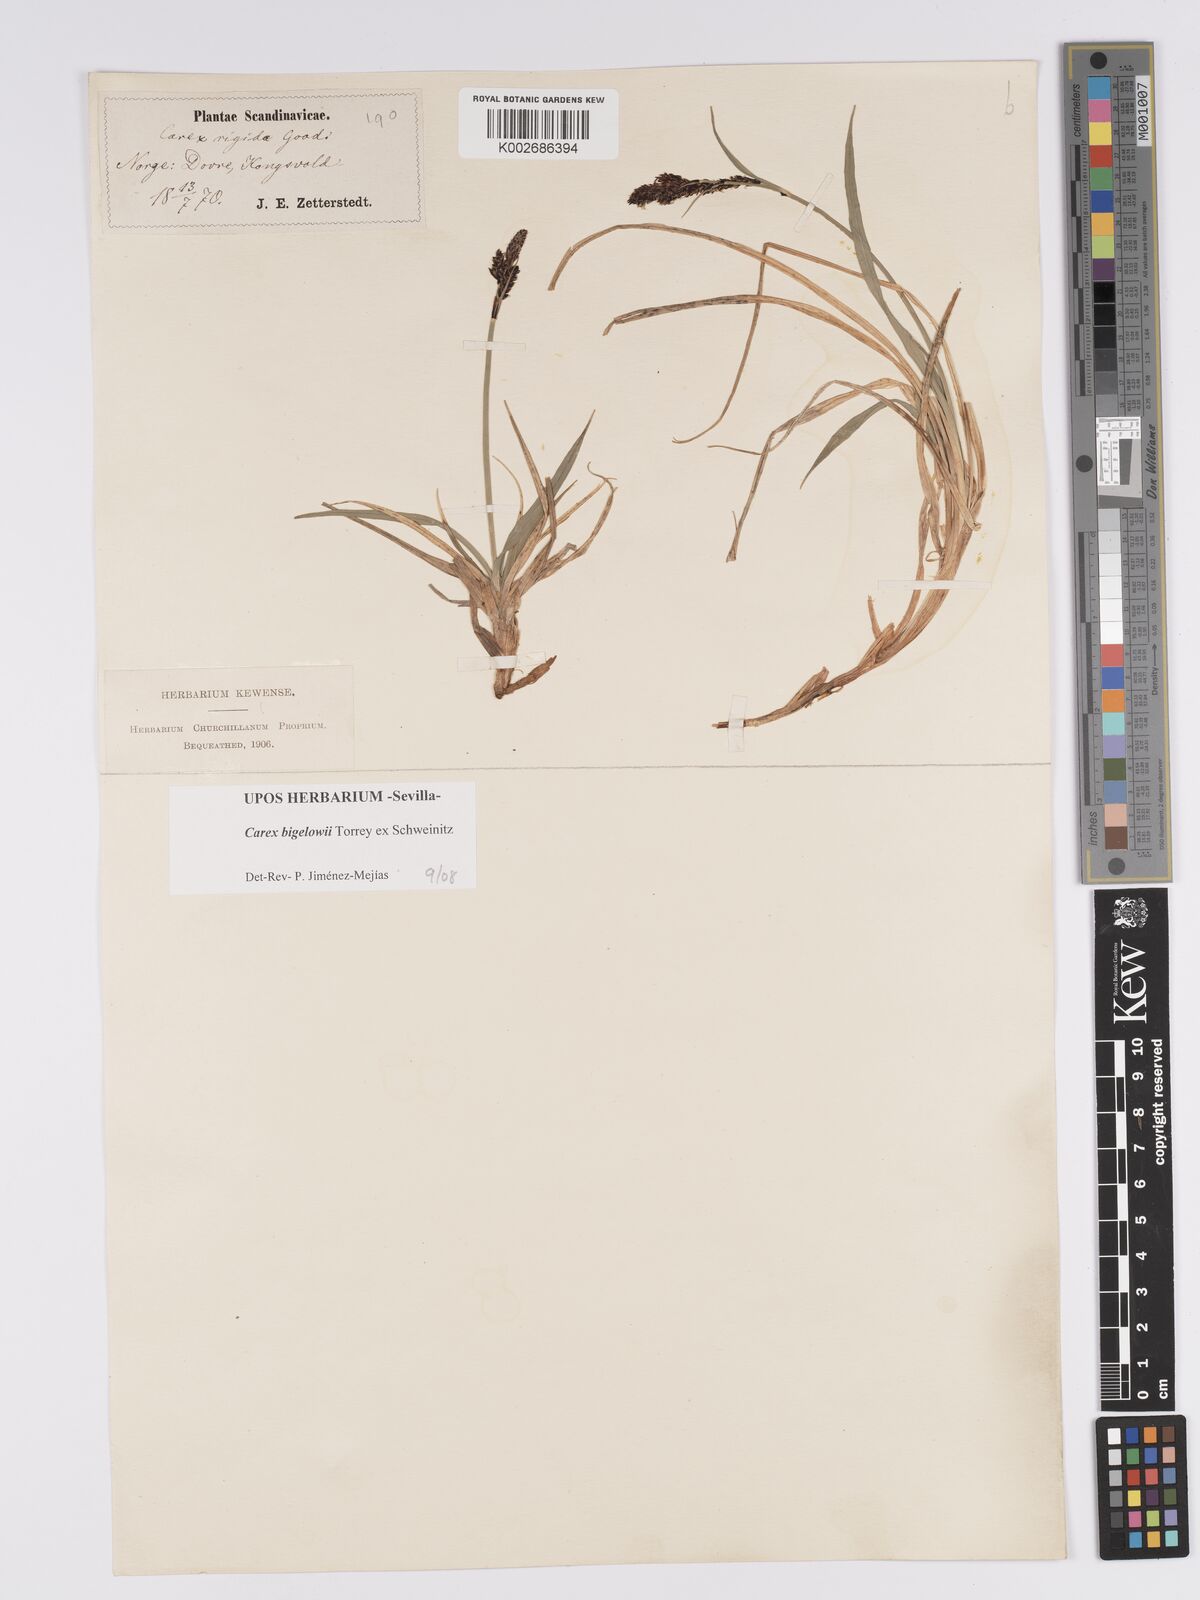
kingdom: Plantae
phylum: Tracheophyta
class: Liliopsida
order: Poales
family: Cyperaceae
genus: Carex
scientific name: Carex bigelowii
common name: Stiff sedge
